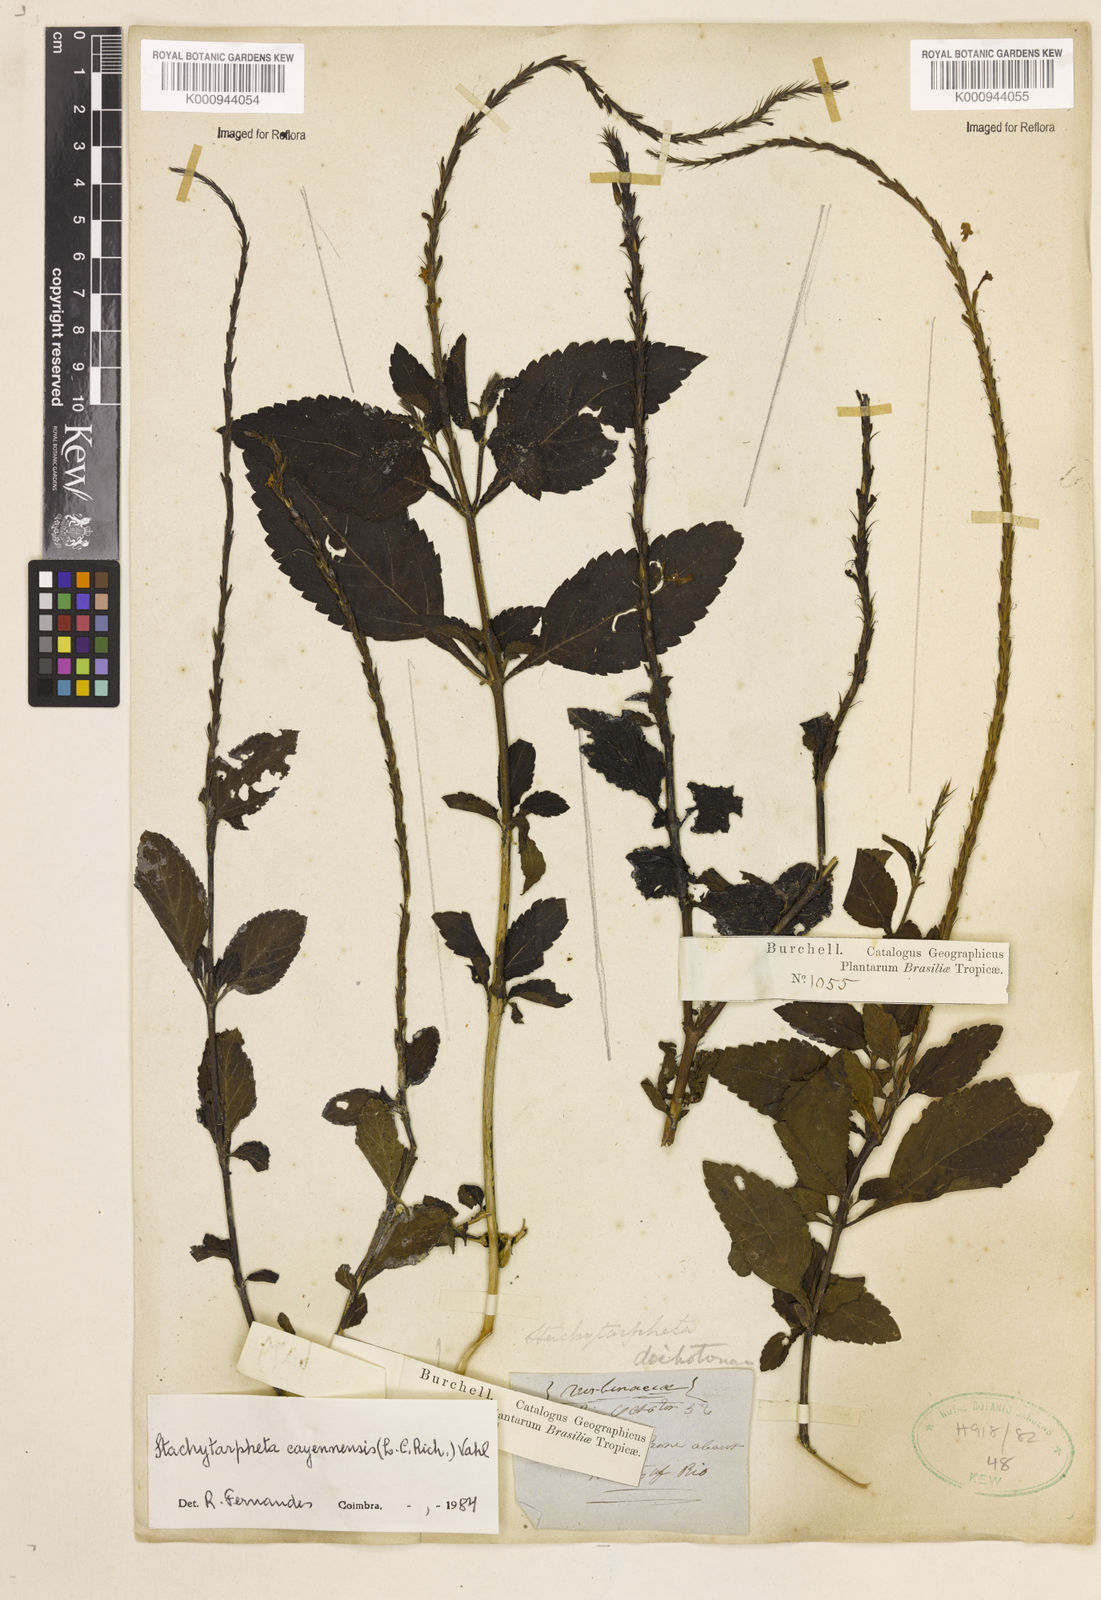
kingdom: Plantae
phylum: Tracheophyta
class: Magnoliopsida
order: Lamiales
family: Verbenaceae
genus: Aloysia
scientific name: Aloysia
